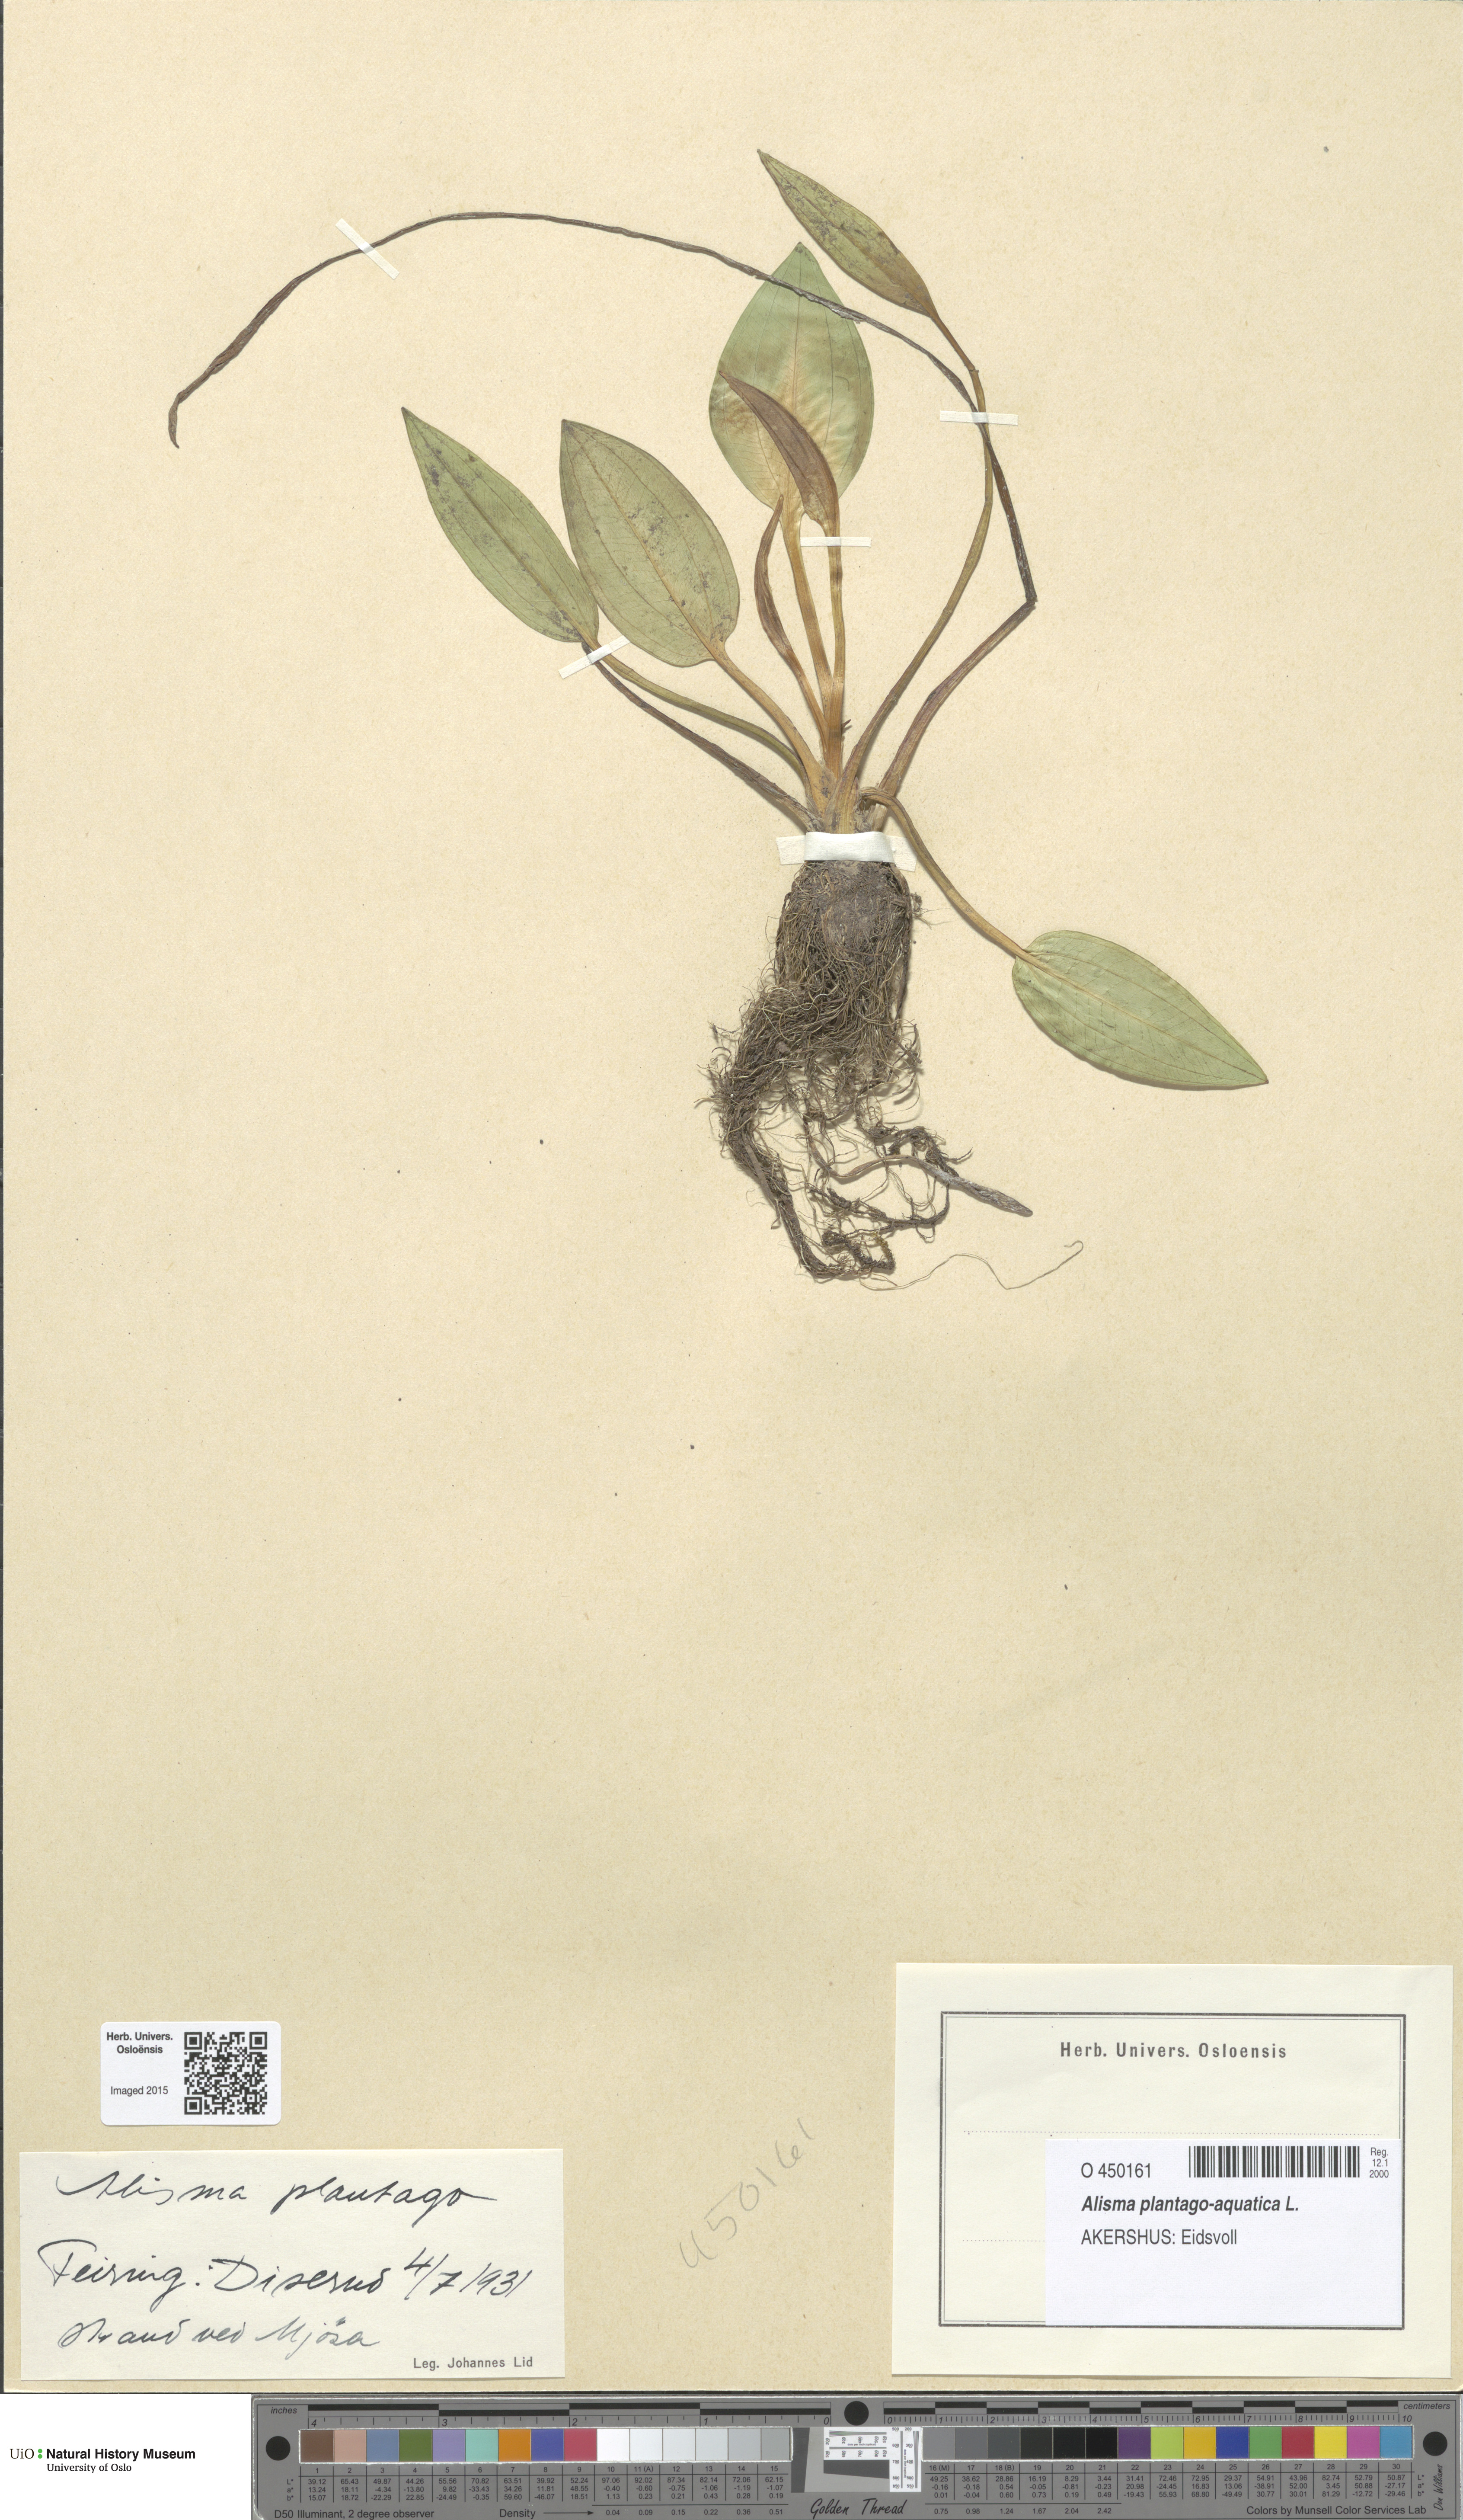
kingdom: Plantae
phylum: Tracheophyta
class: Liliopsida
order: Alismatales
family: Alismataceae
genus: Alisma
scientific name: Alisma plantago-aquatica
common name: Water-plantain
